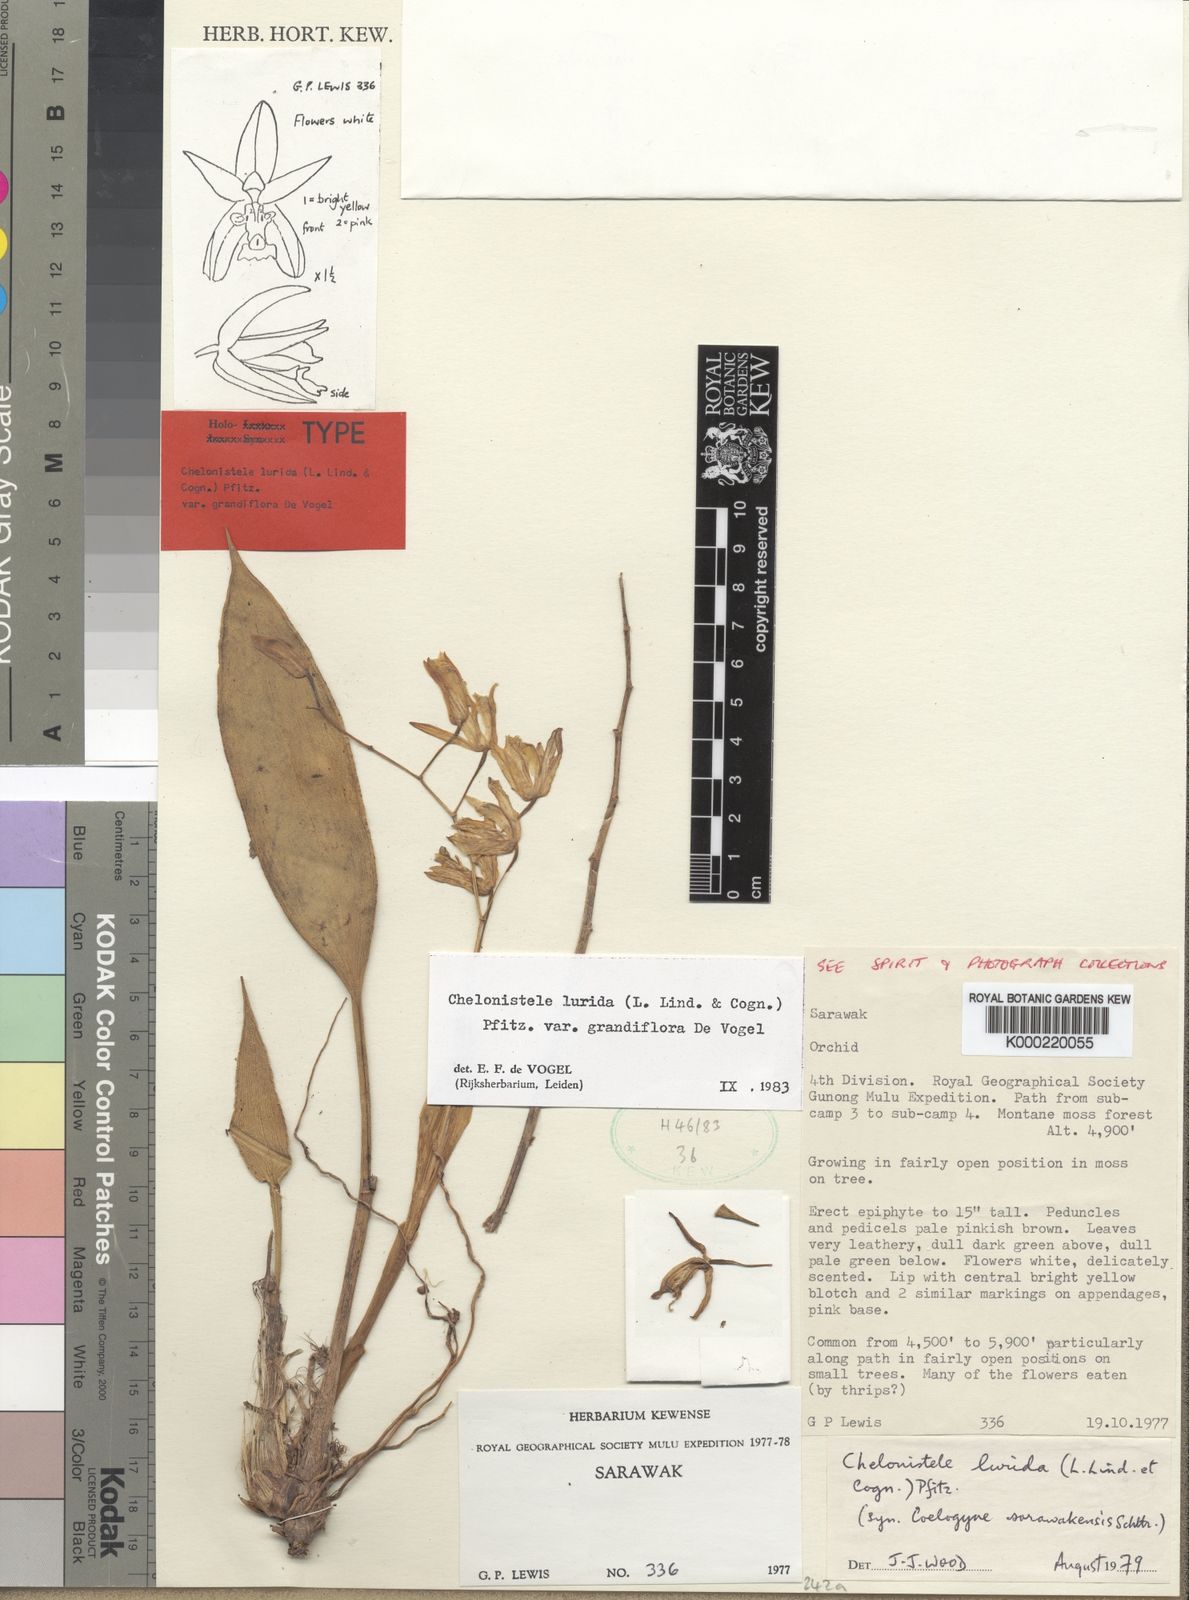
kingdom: Plantae
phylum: Tracheophyta
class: Liliopsida
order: Asparagales
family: Orchidaceae
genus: Coelogyne
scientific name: Coelogyne eduardii
